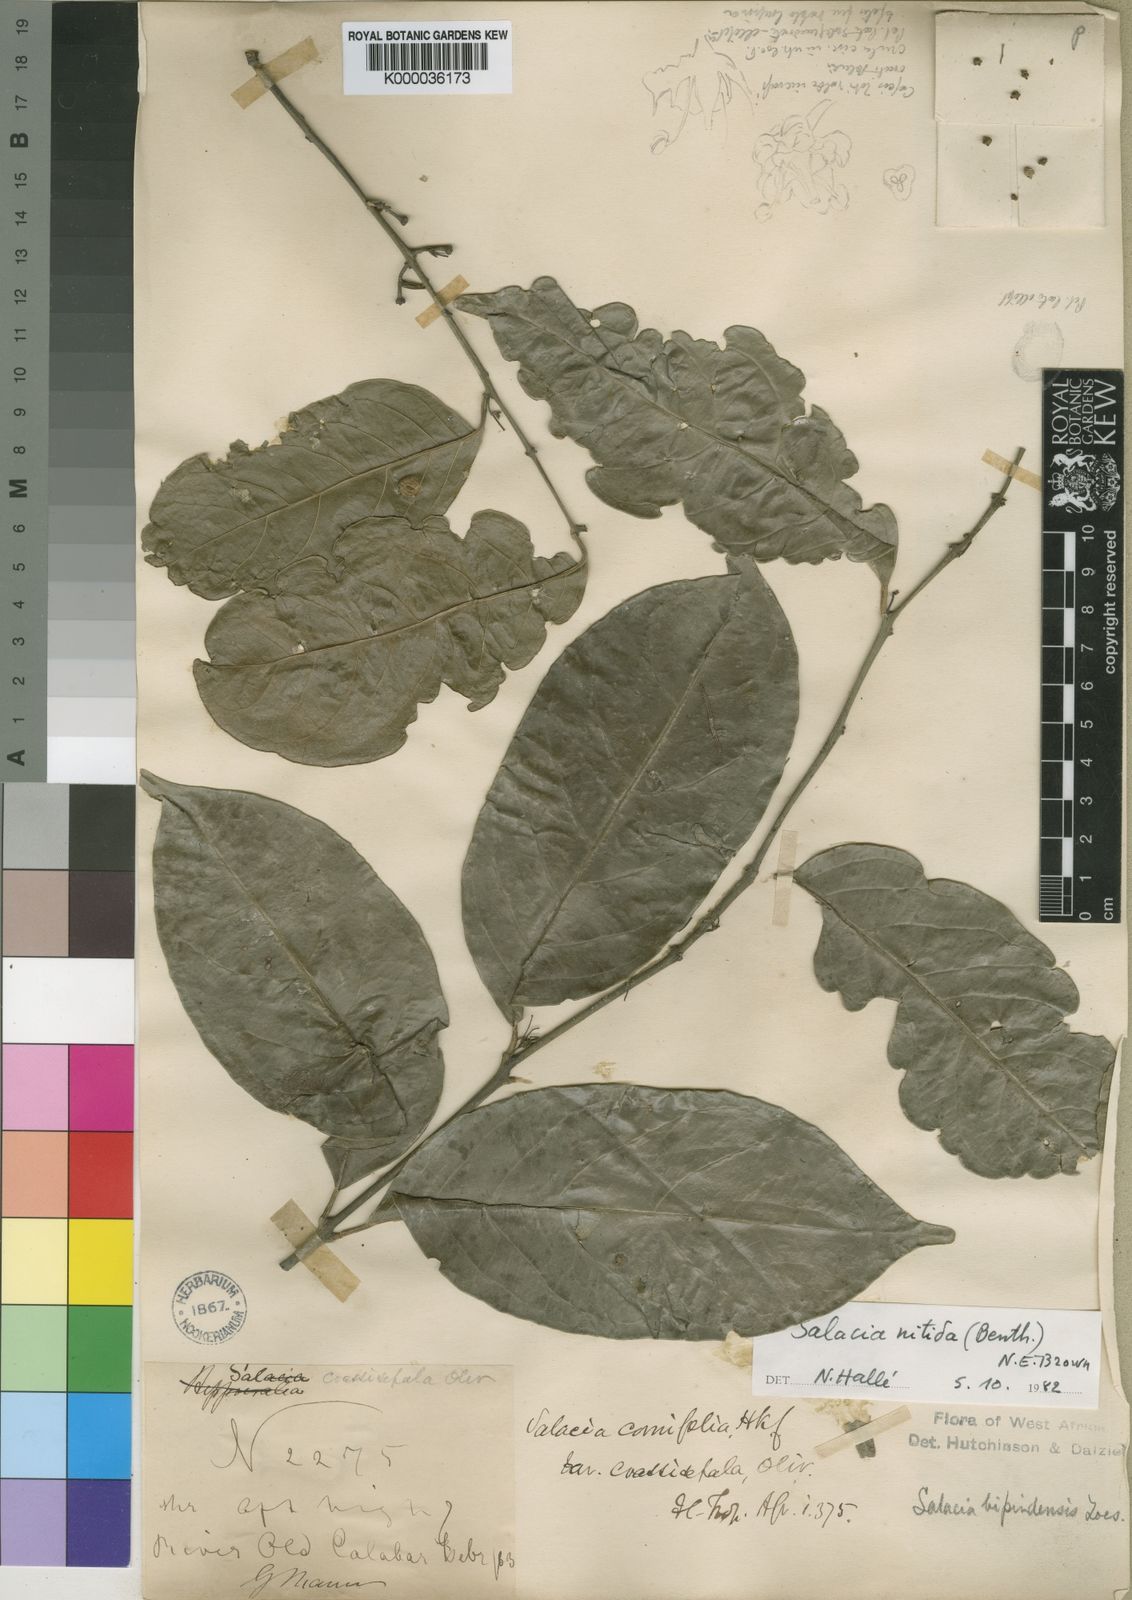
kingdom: Plantae
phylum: Tracheophyta
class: Magnoliopsida
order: Celastrales
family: Celastraceae
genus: Salacia
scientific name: Salacia nitida
